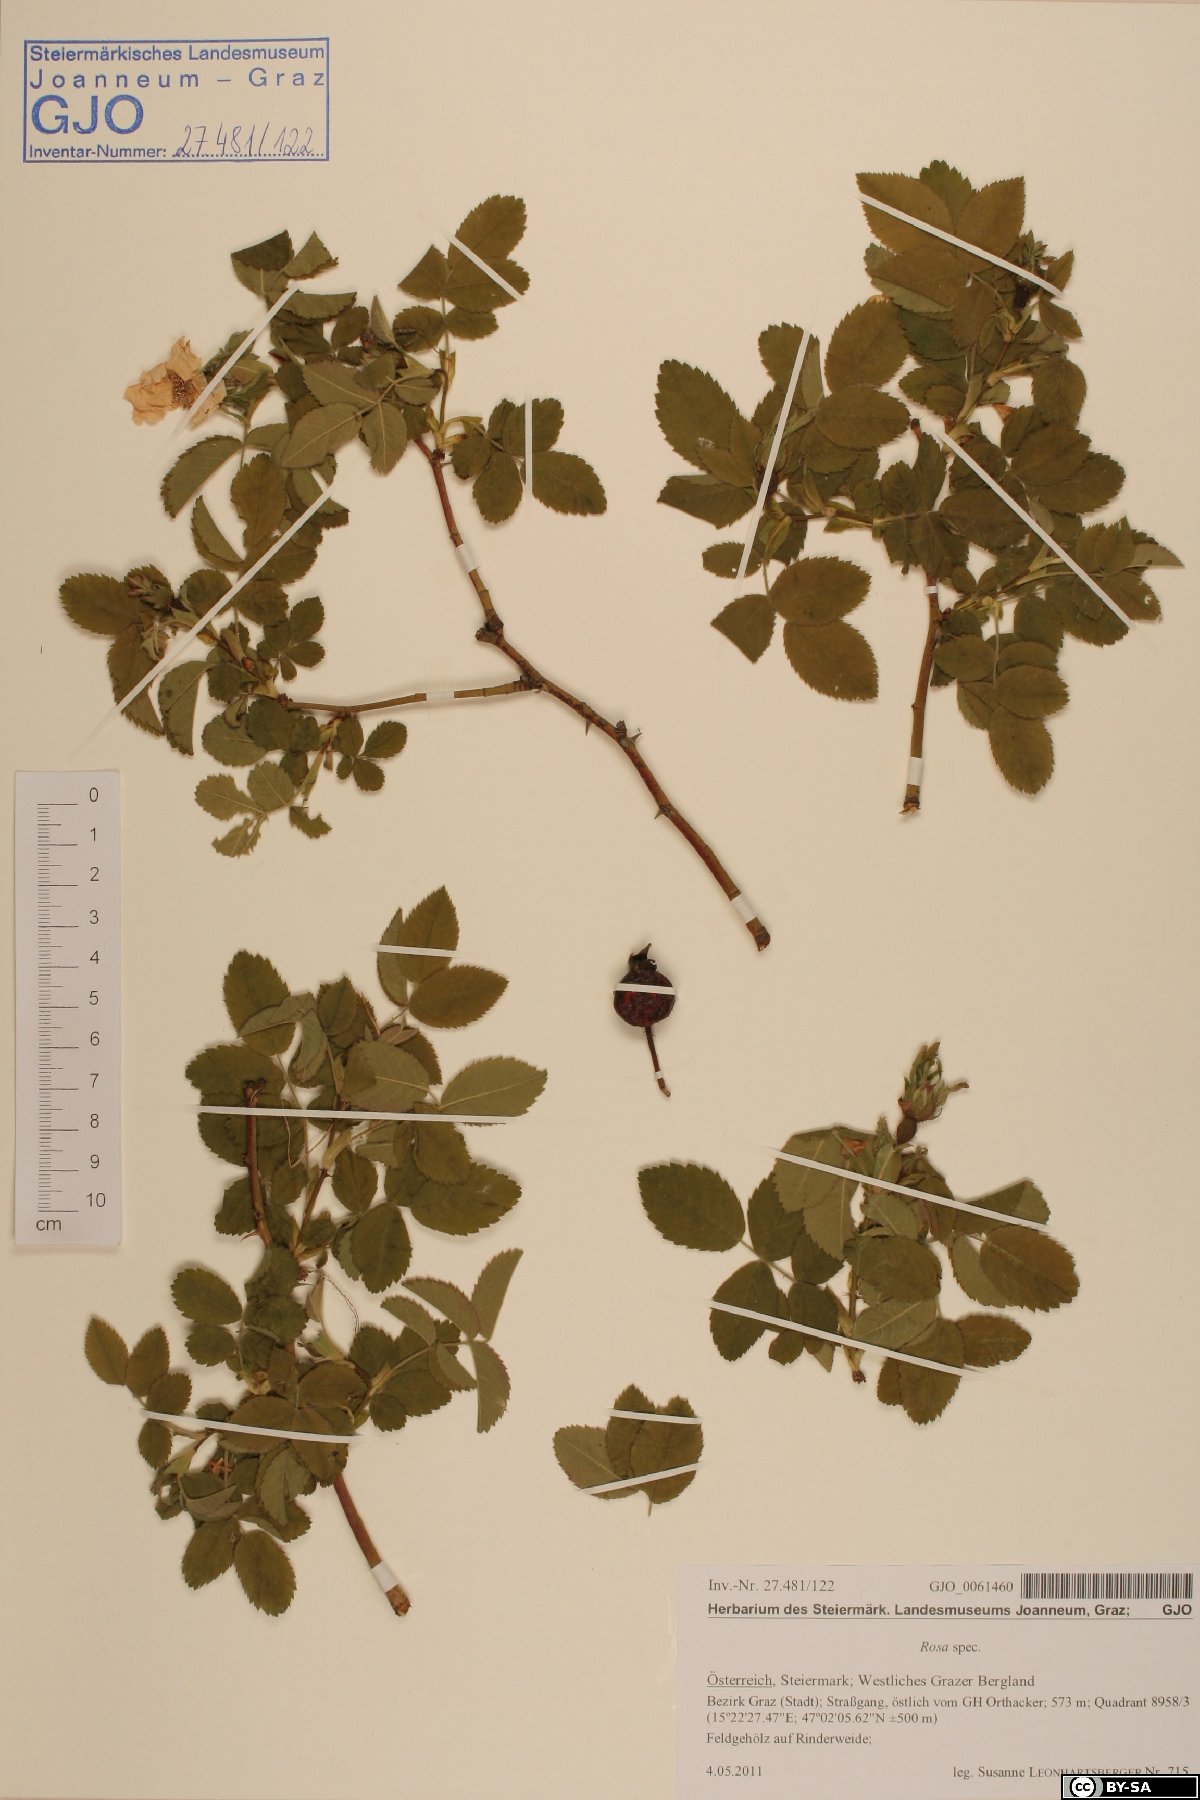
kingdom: Plantae
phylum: Tracheophyta
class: Magnoliopsida
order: Rosales
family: Rosaceae
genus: Rosa
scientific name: Rosa
